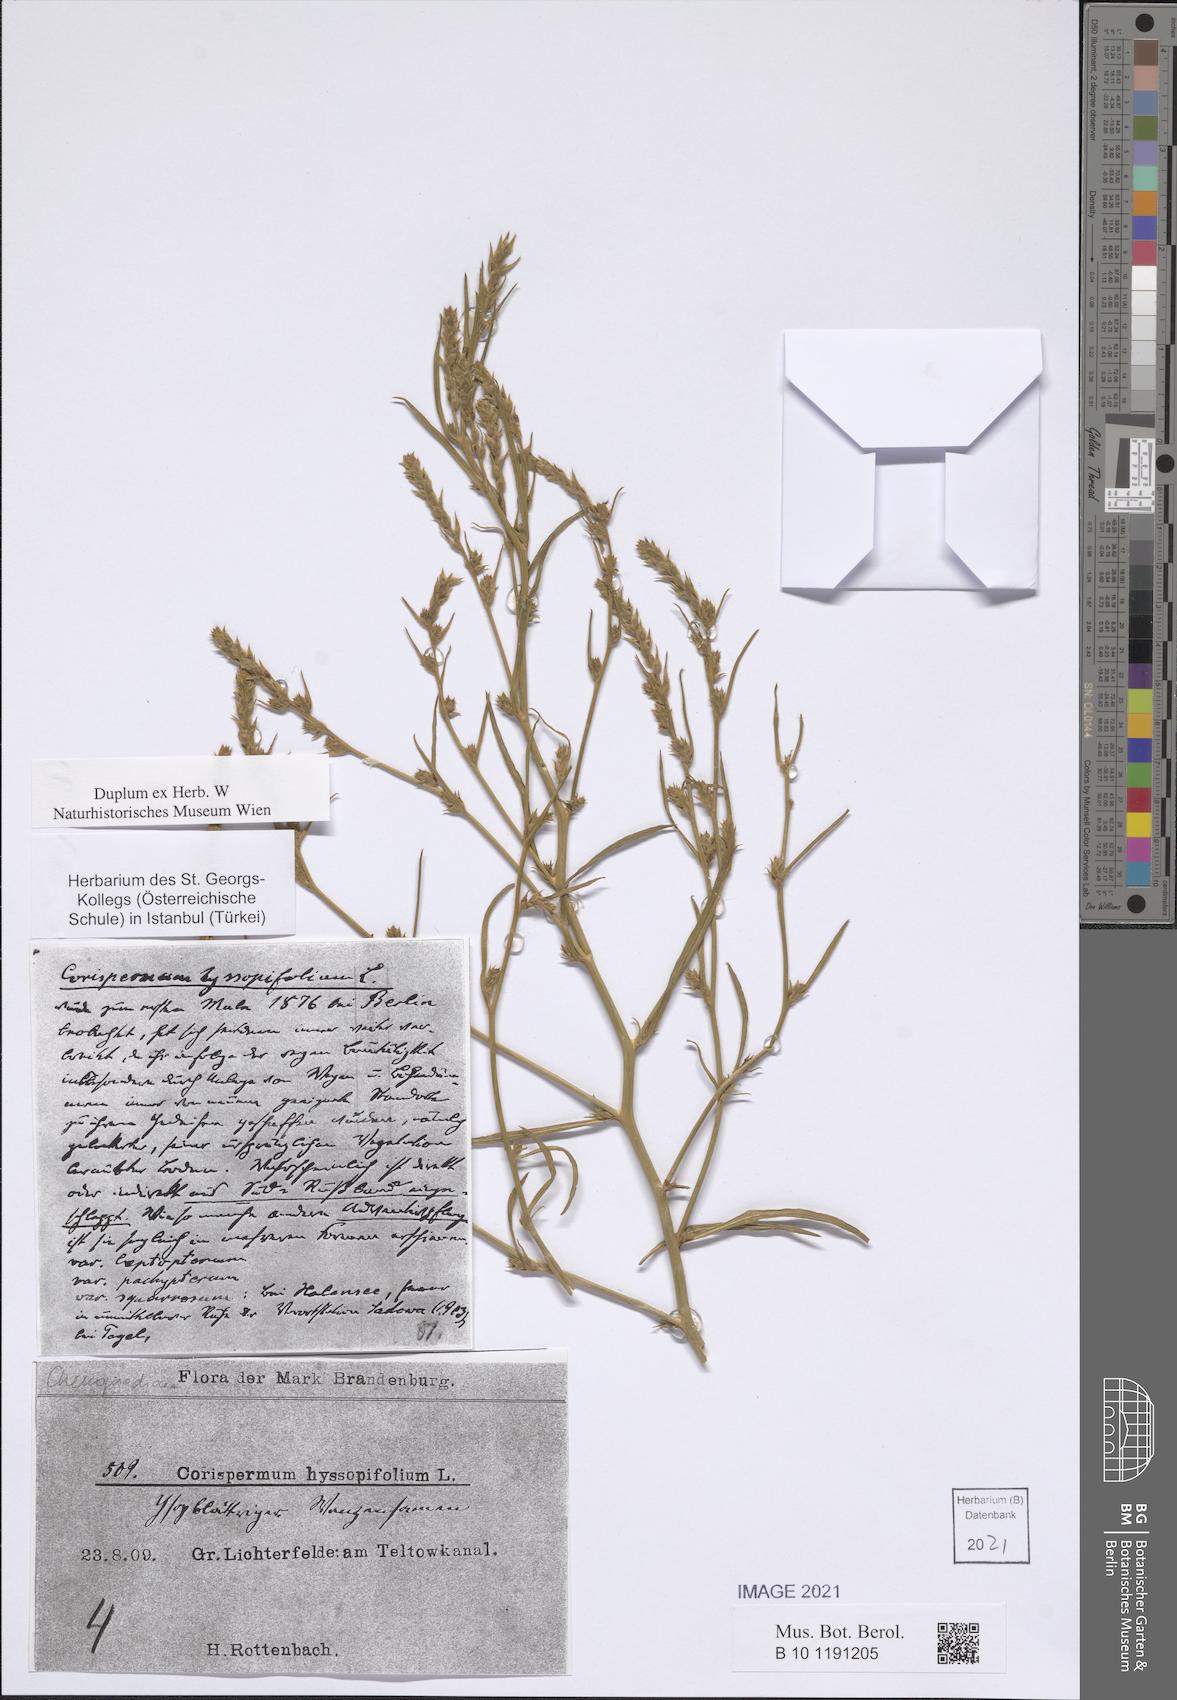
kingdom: Plantae
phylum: Tracheophyta
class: Magnoliopsida
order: Caryophyllales
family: Amaranthaceae
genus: Corispermum
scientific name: Corispermum hyssopifolium
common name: Bugseed
